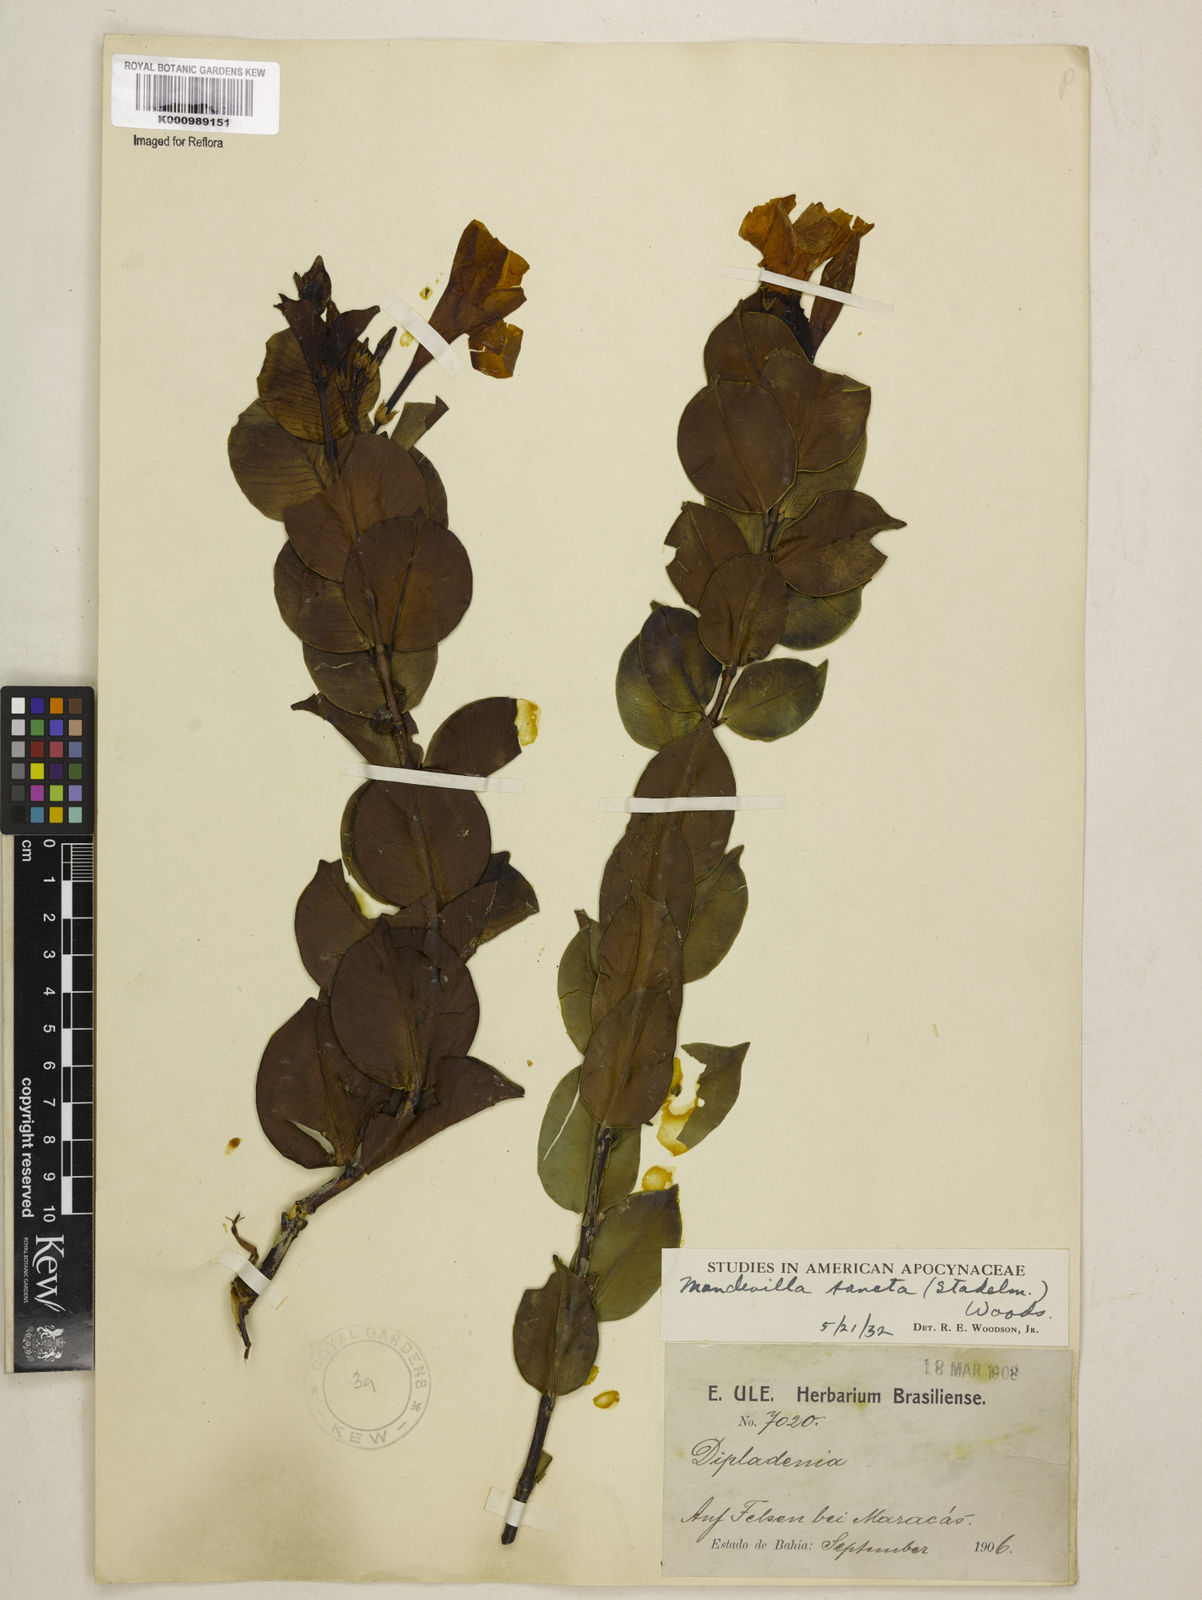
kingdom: Plantae
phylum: Tracheophyta
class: Magnoliopsida
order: Gentianales
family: Apocynaceae
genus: Mandevilla
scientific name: Mandevilla sancta
